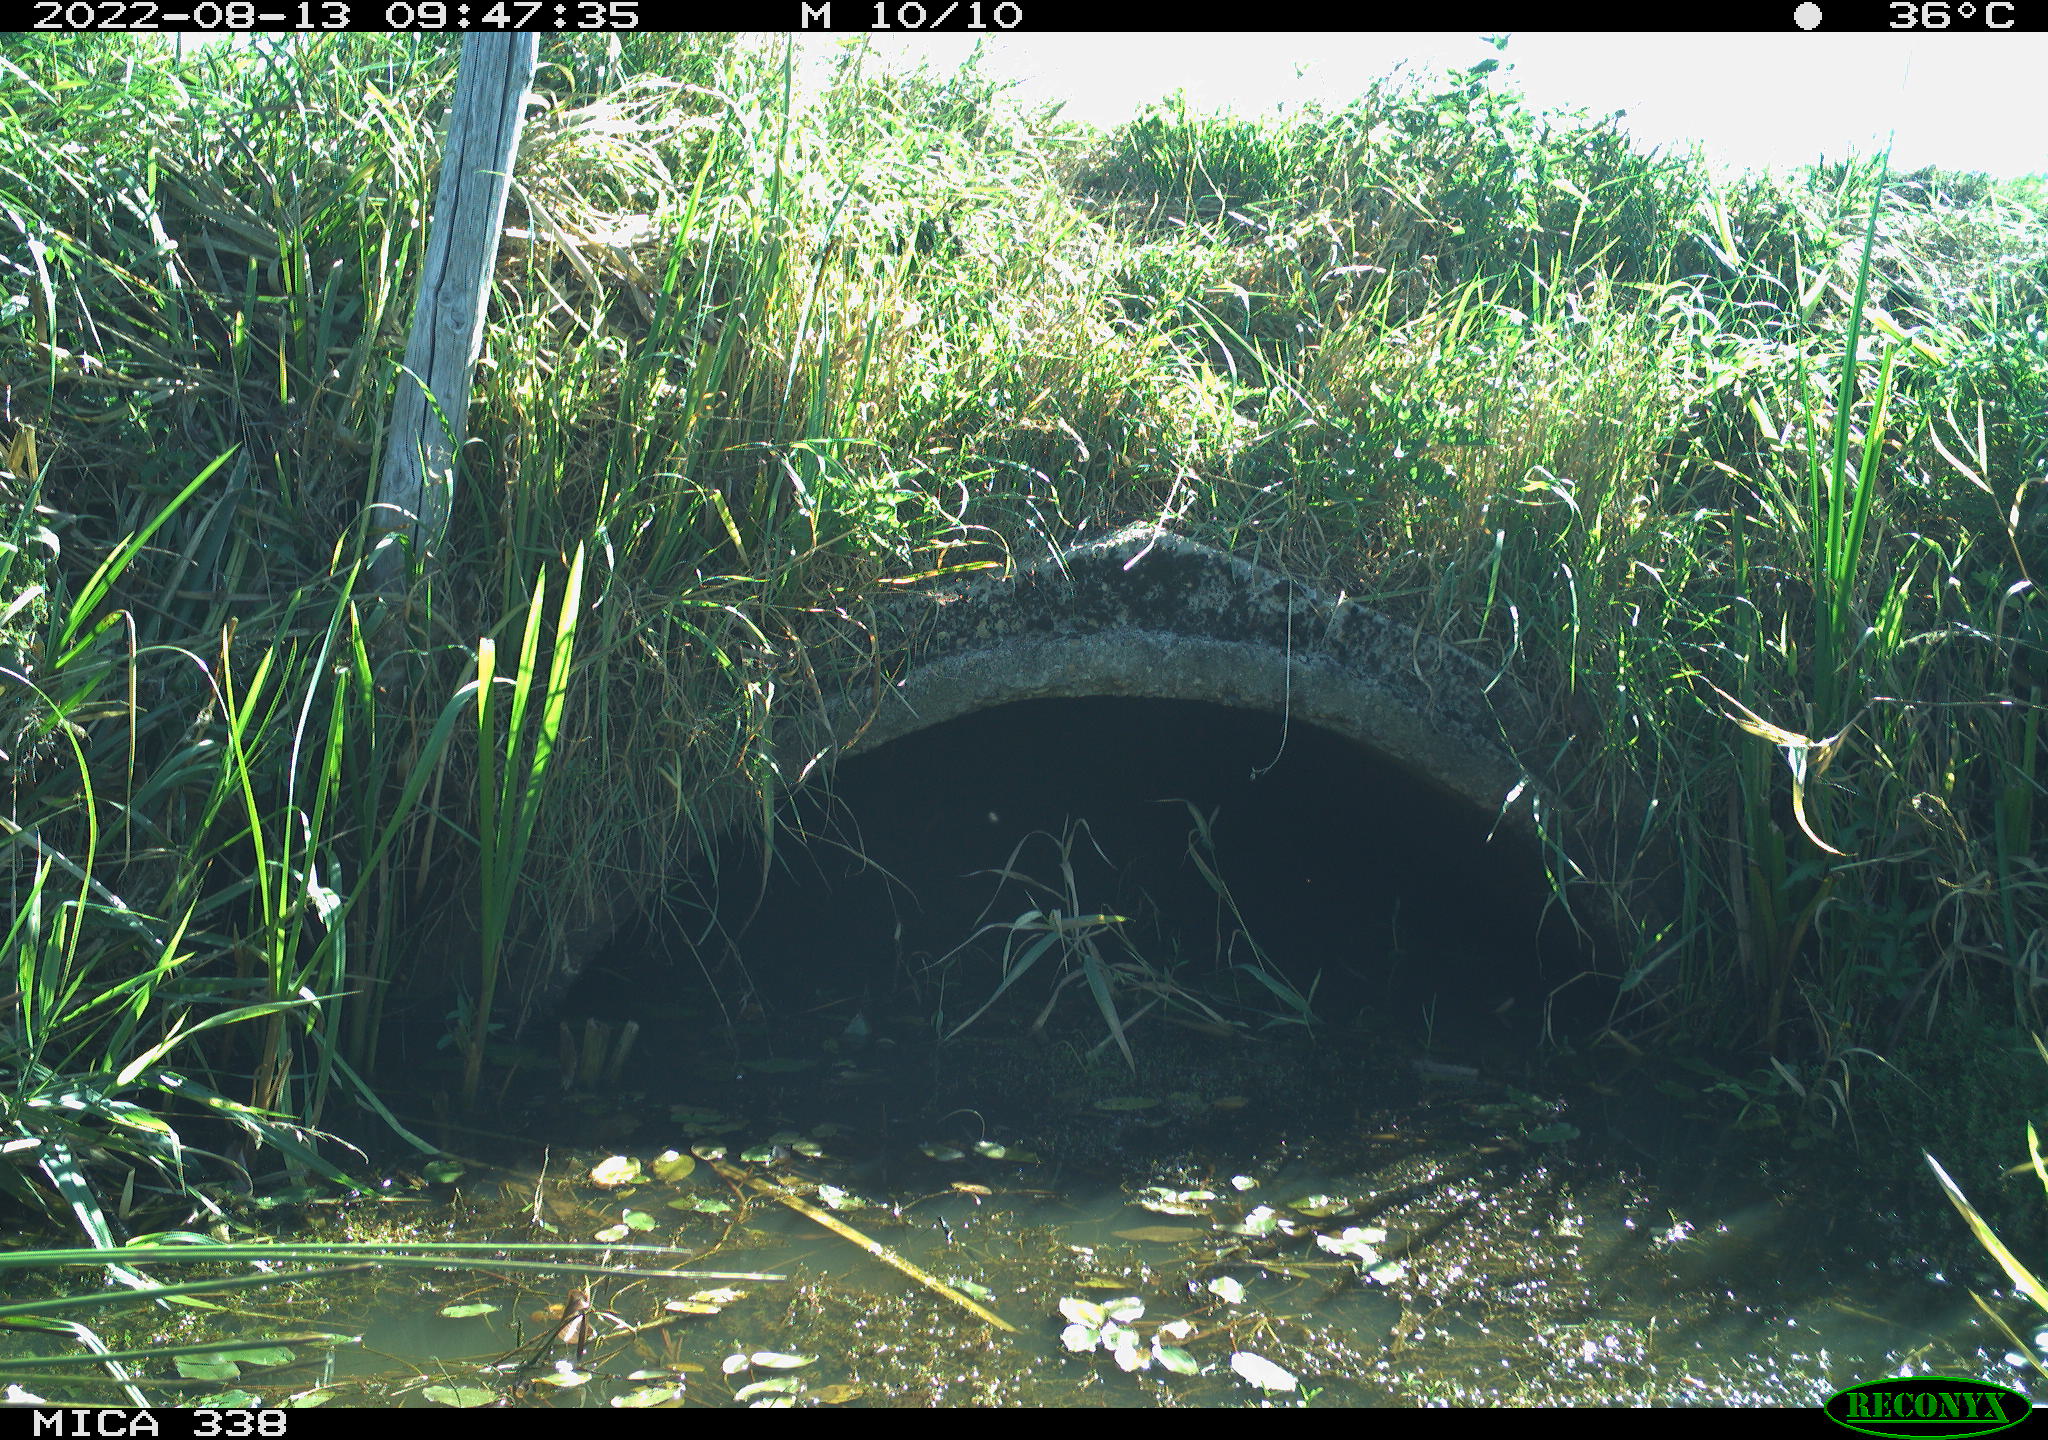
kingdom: Animalia
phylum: Chordata
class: Aves
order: Columbiformes
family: Columbidae
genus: Columba
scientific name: Columba oenas
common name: Stock dove
